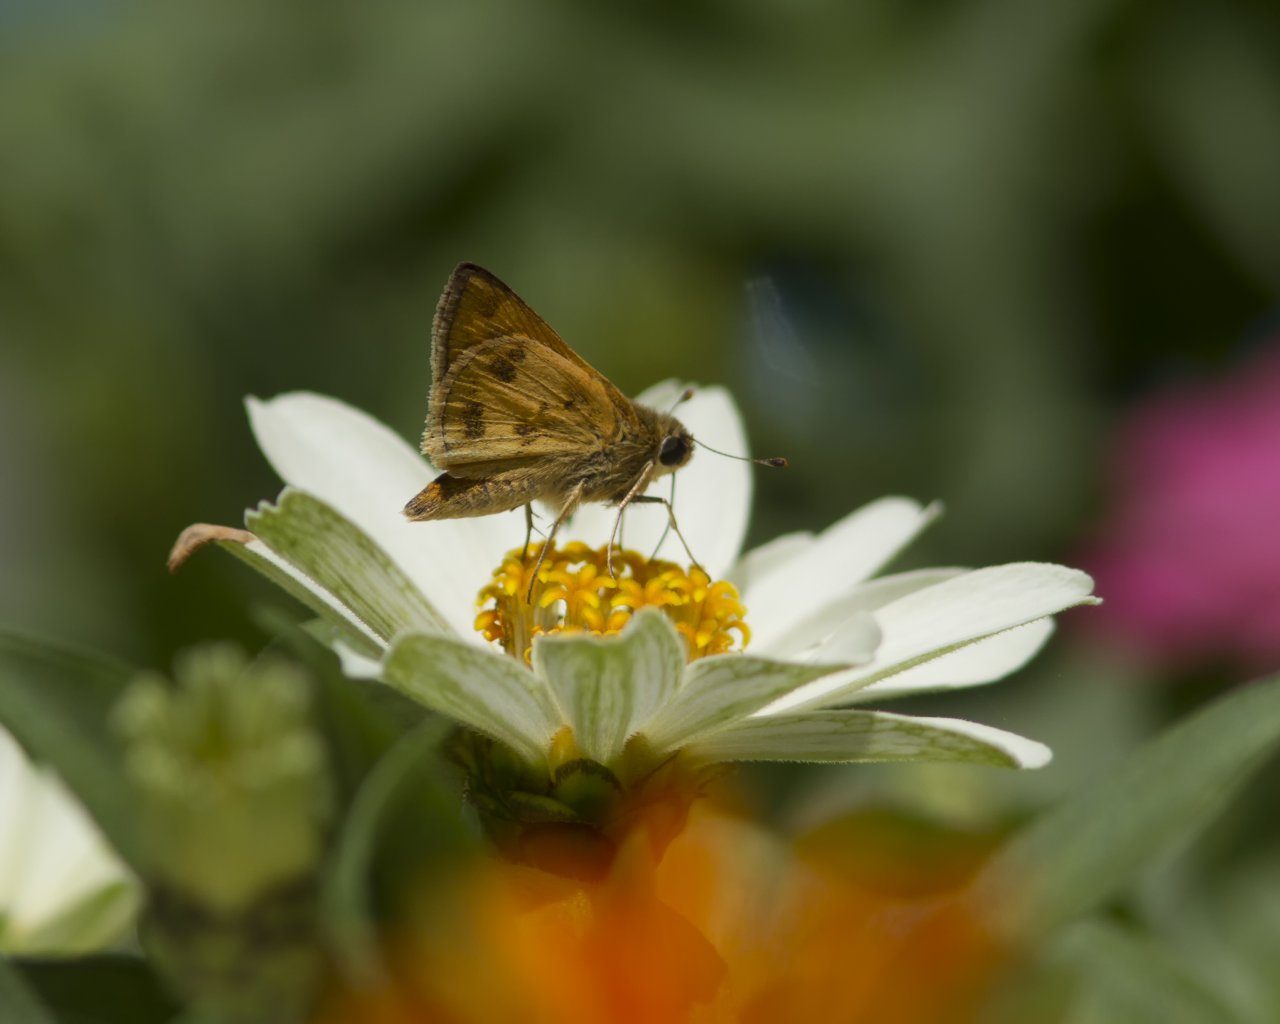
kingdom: Animalia
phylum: Arthropoda
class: Insecta
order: Lepidoptera
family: Hesperiidae
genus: Polites
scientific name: Polites vibex
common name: Whirlabout
